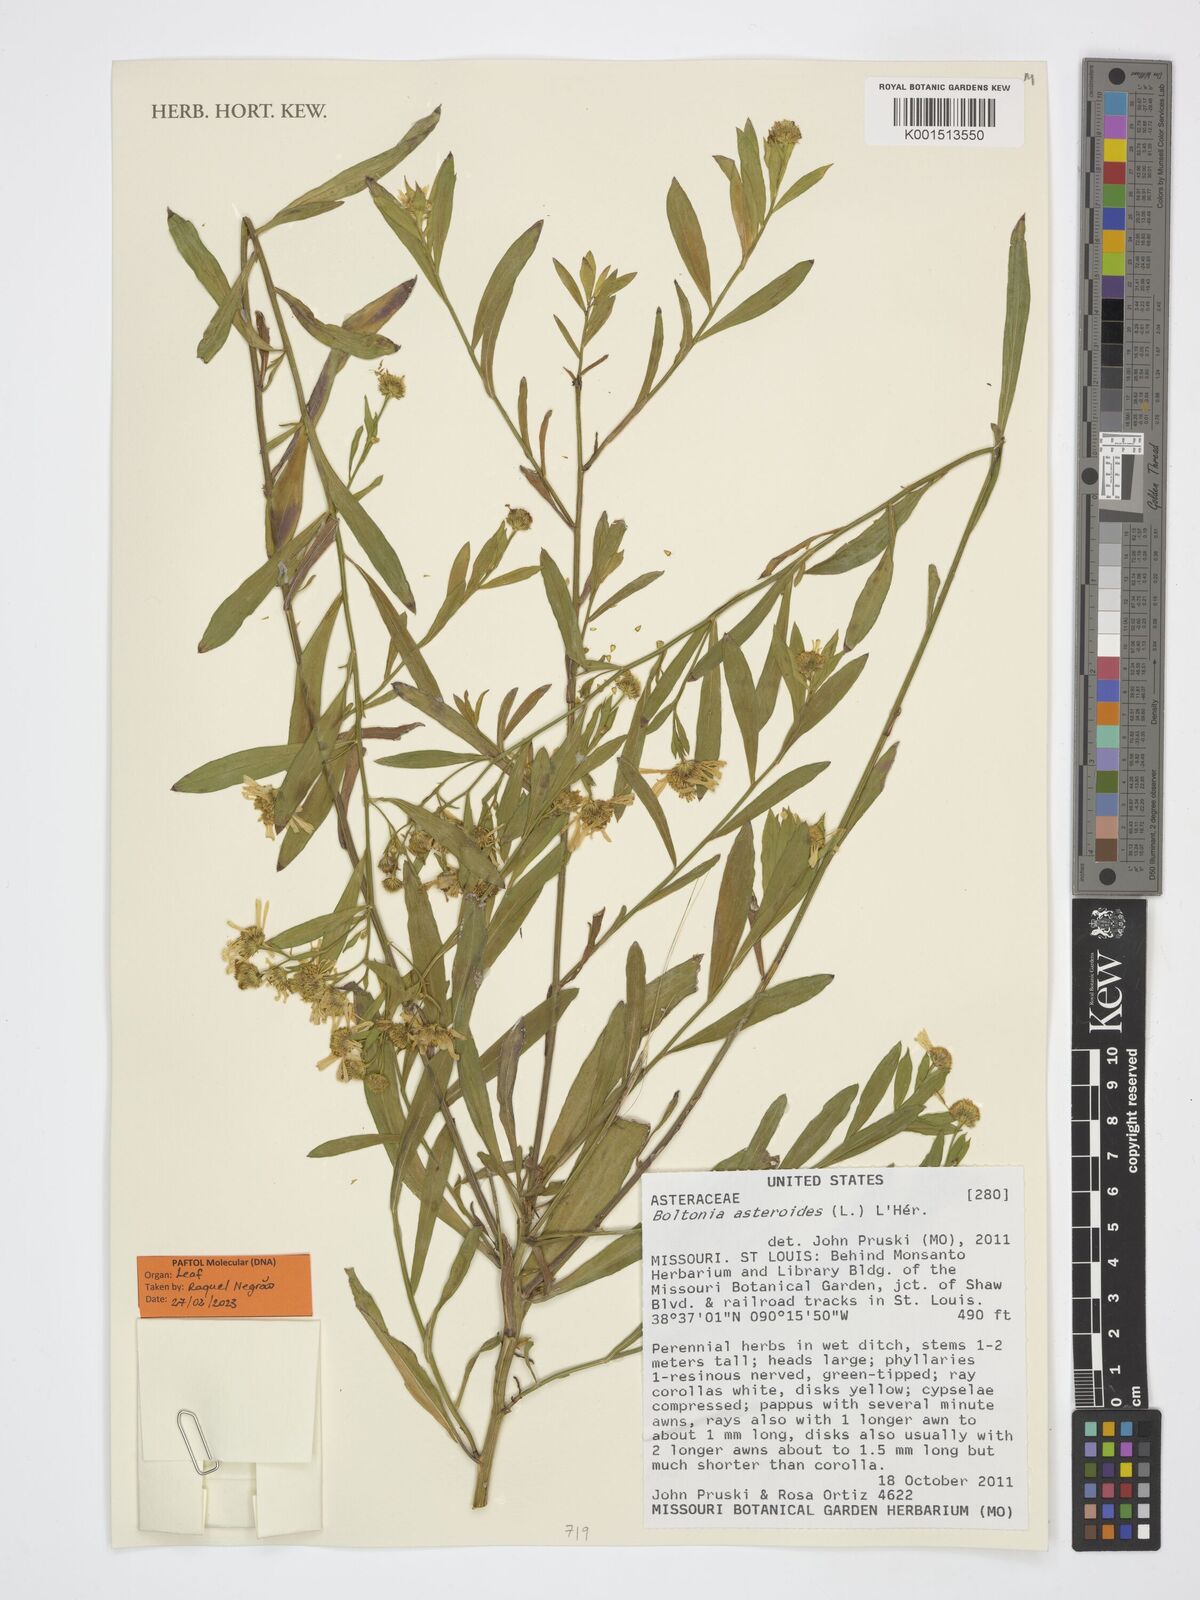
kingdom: Plantae
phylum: Tracheophyta
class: Magnoliopsida
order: Asterales
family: Asteraceae
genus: Boltonia
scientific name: Boltonia diffusa
